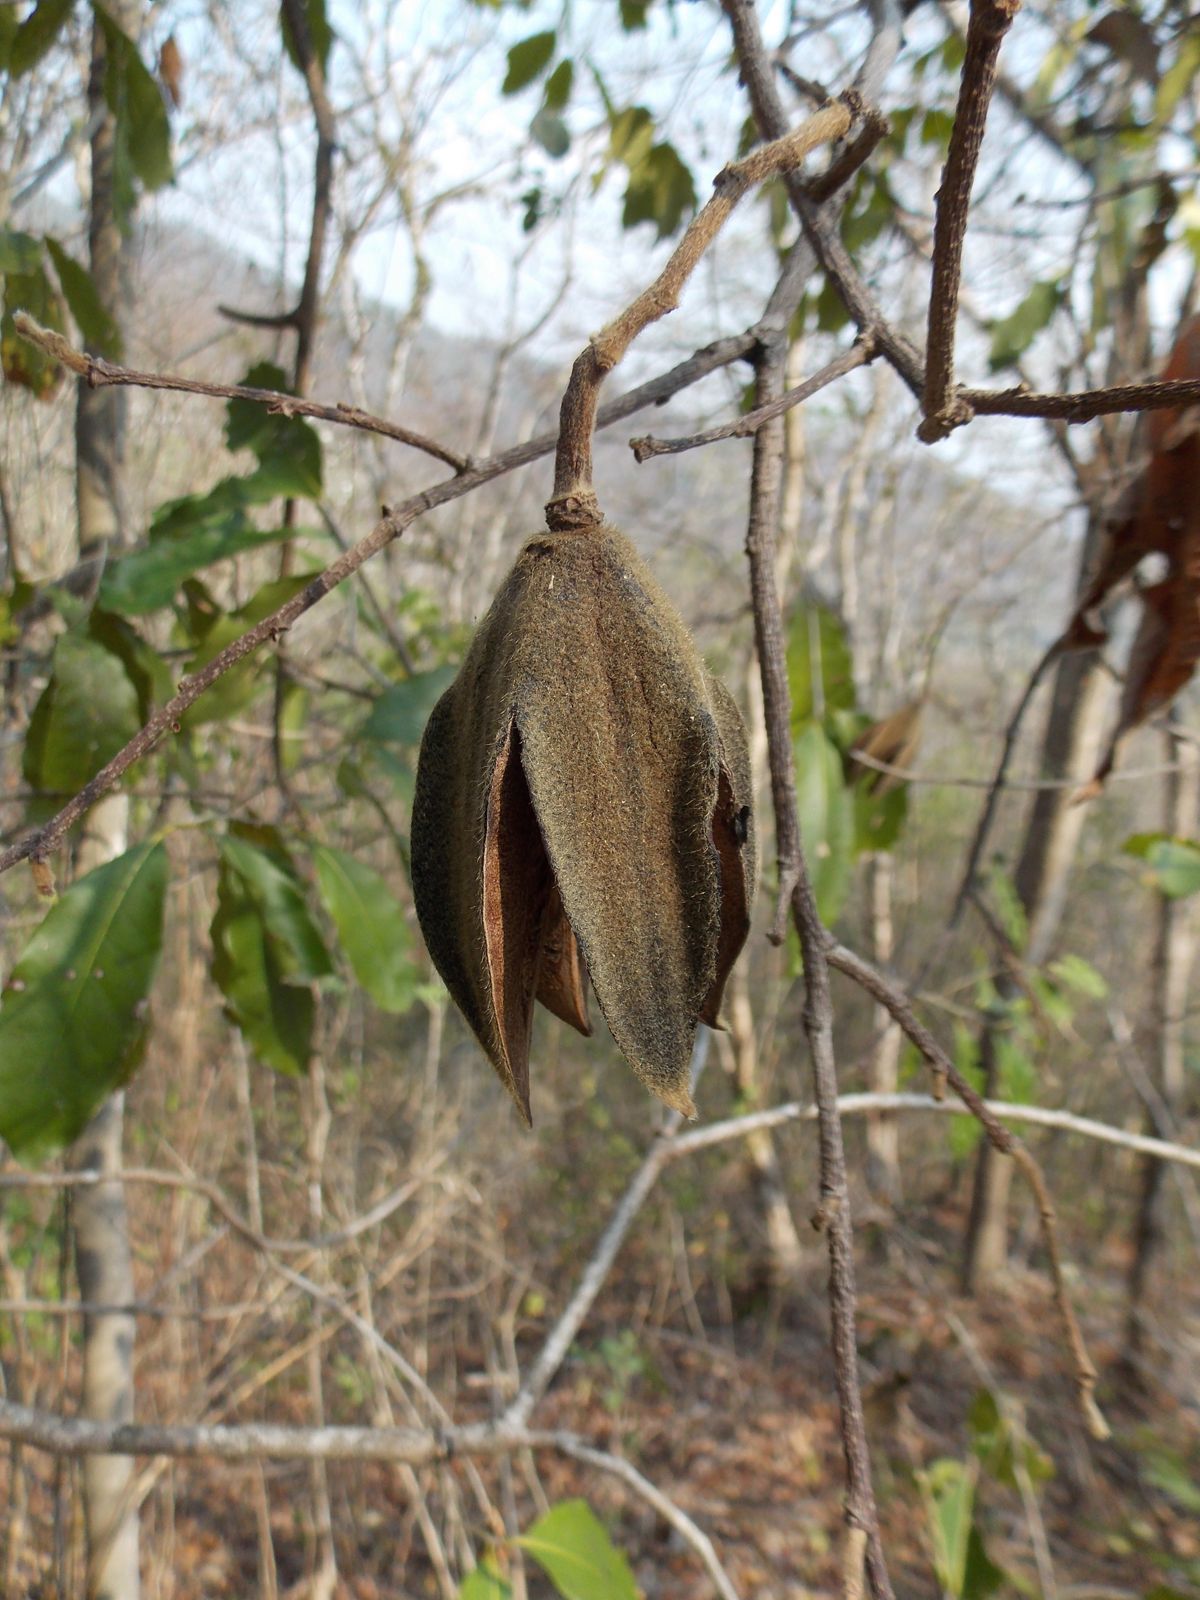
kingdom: Plantae
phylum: Tracheophyta
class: Magnoliopsida
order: Malvales
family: Malvaceae
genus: Luehea
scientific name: Luehea candida
